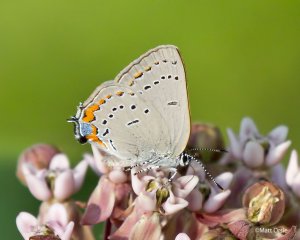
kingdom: Animalia
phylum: Arthropoda
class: Insecta
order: Lepidoptera
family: Lycaenidae
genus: Strymon
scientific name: Strymon acadica
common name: Acadian Hairstreak
